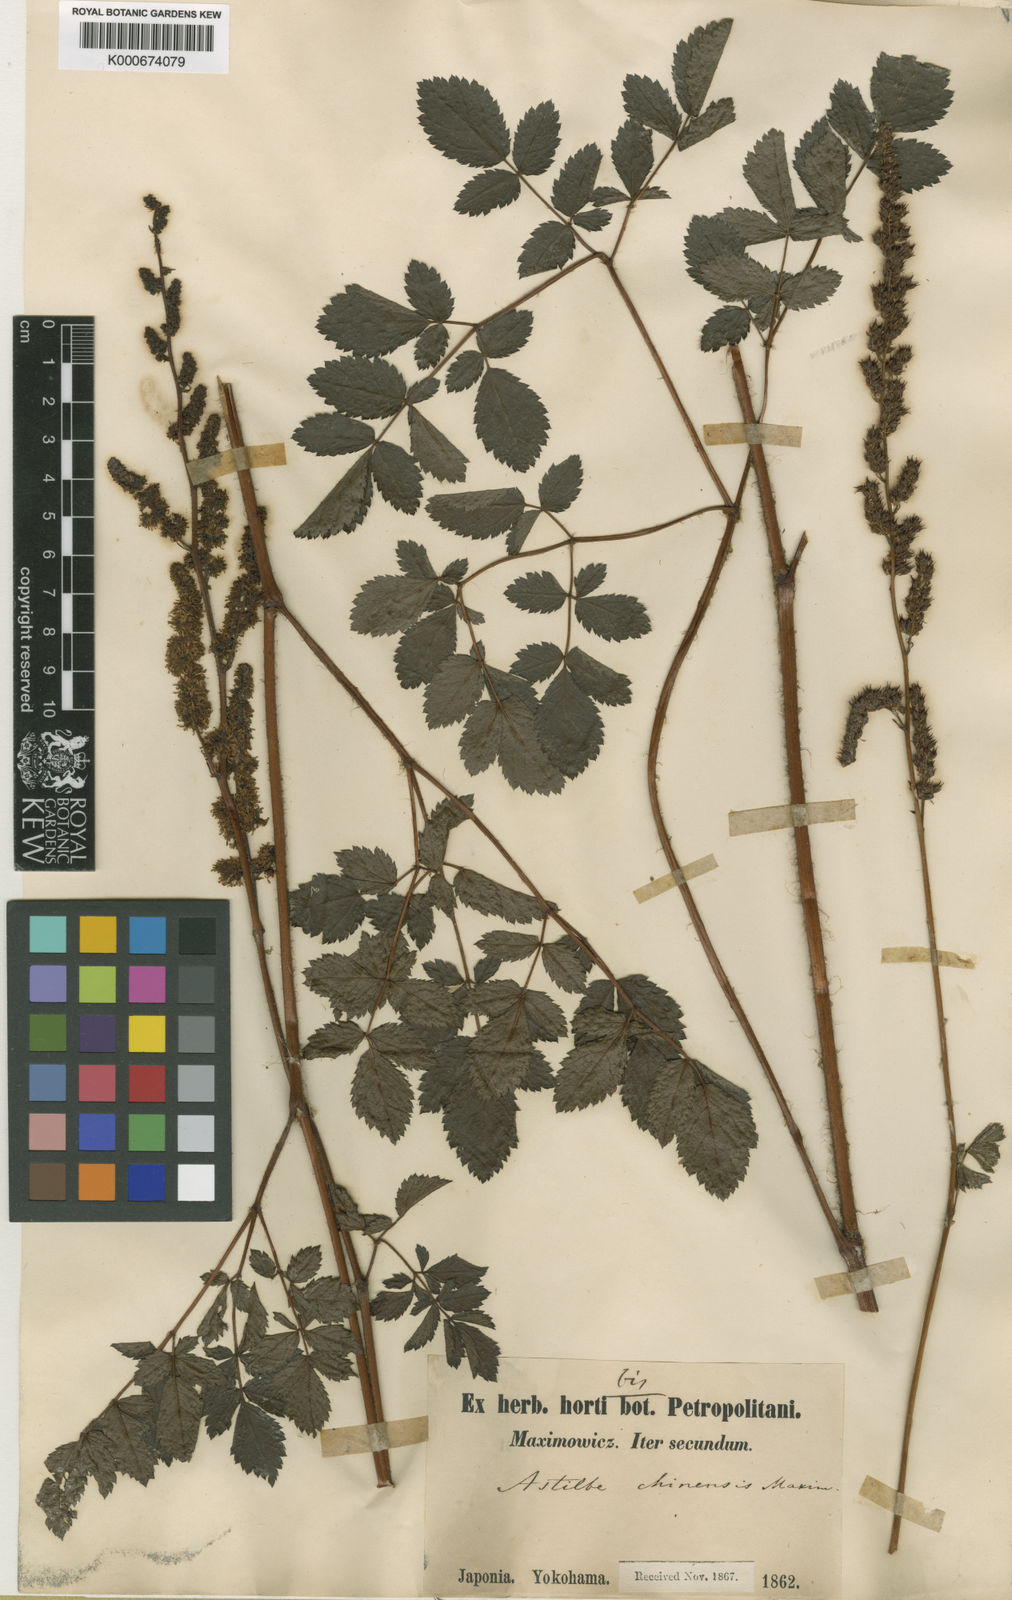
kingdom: Plantae
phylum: Tracheophyta
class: Magnoliopsida
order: Saxifragales
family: Saxifragaceae
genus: Astilbe
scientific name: Astilbe microphylla
